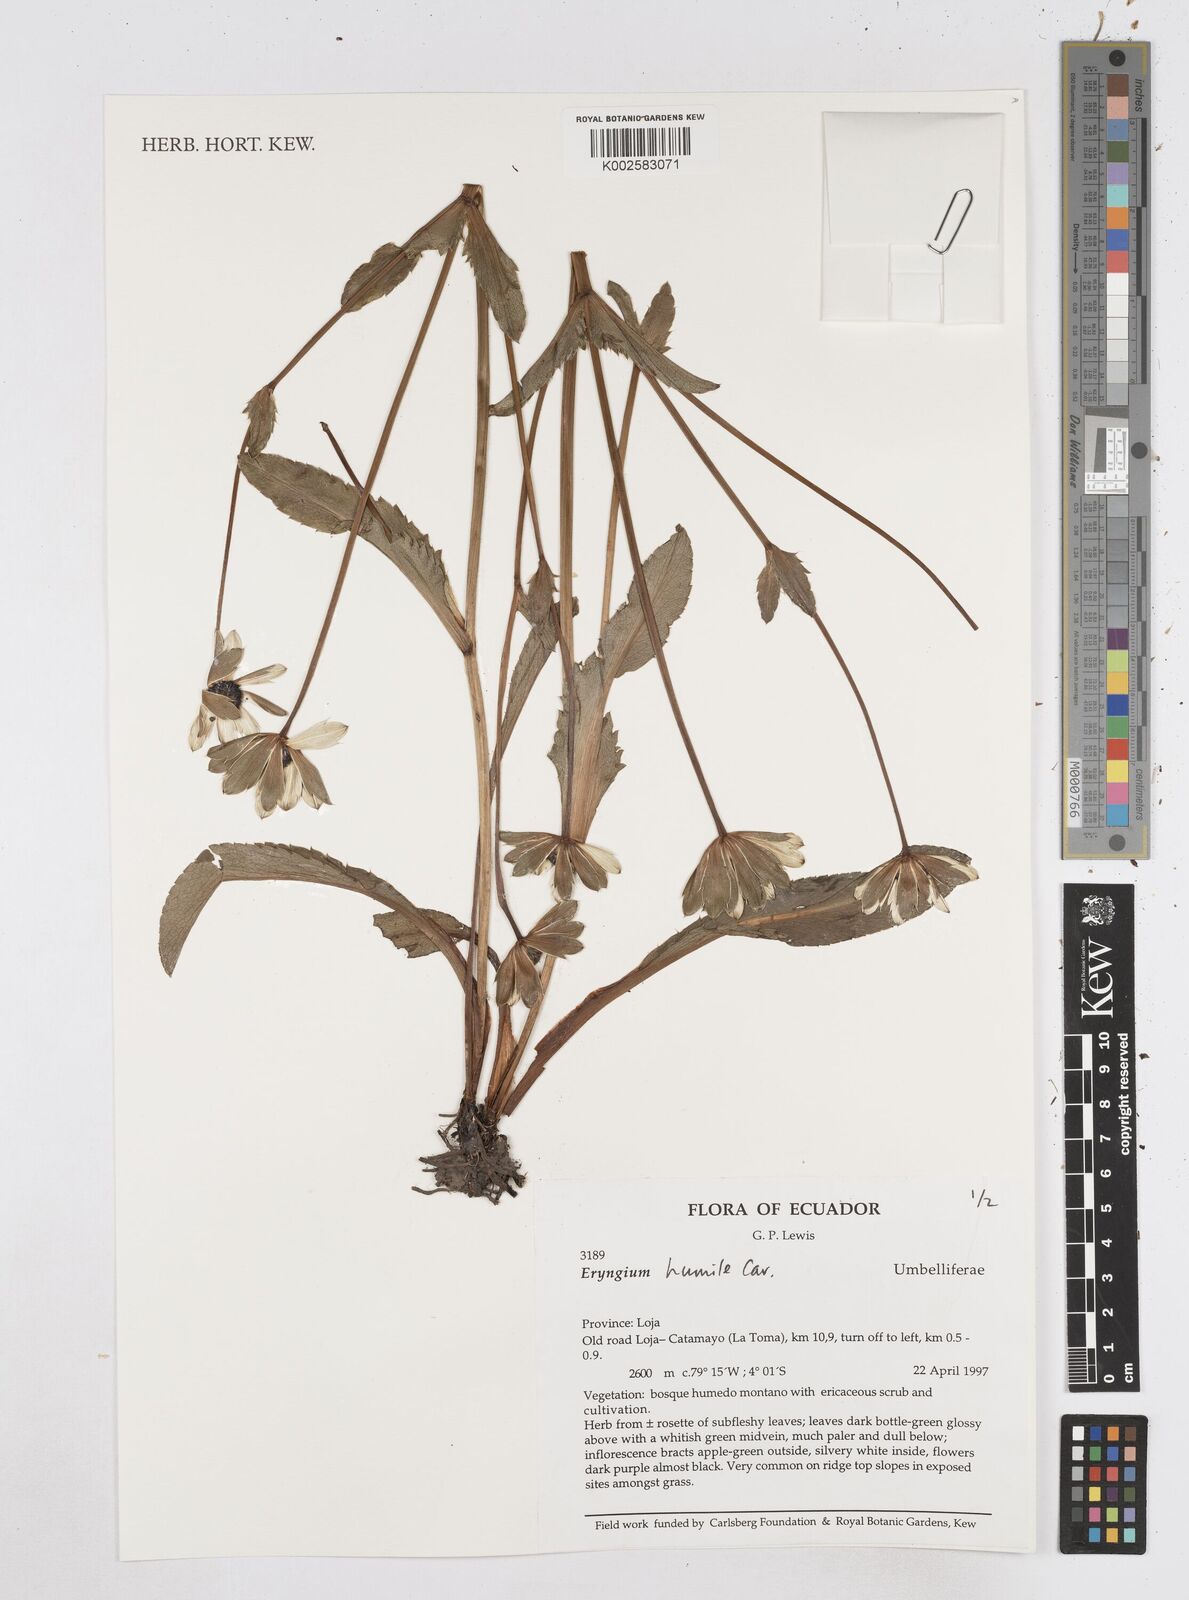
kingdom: Plantae
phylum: Tracheophyta
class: Magnoliopsida
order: Apiales
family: Apiaceae
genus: Eryngium
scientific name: Eryngium humile
